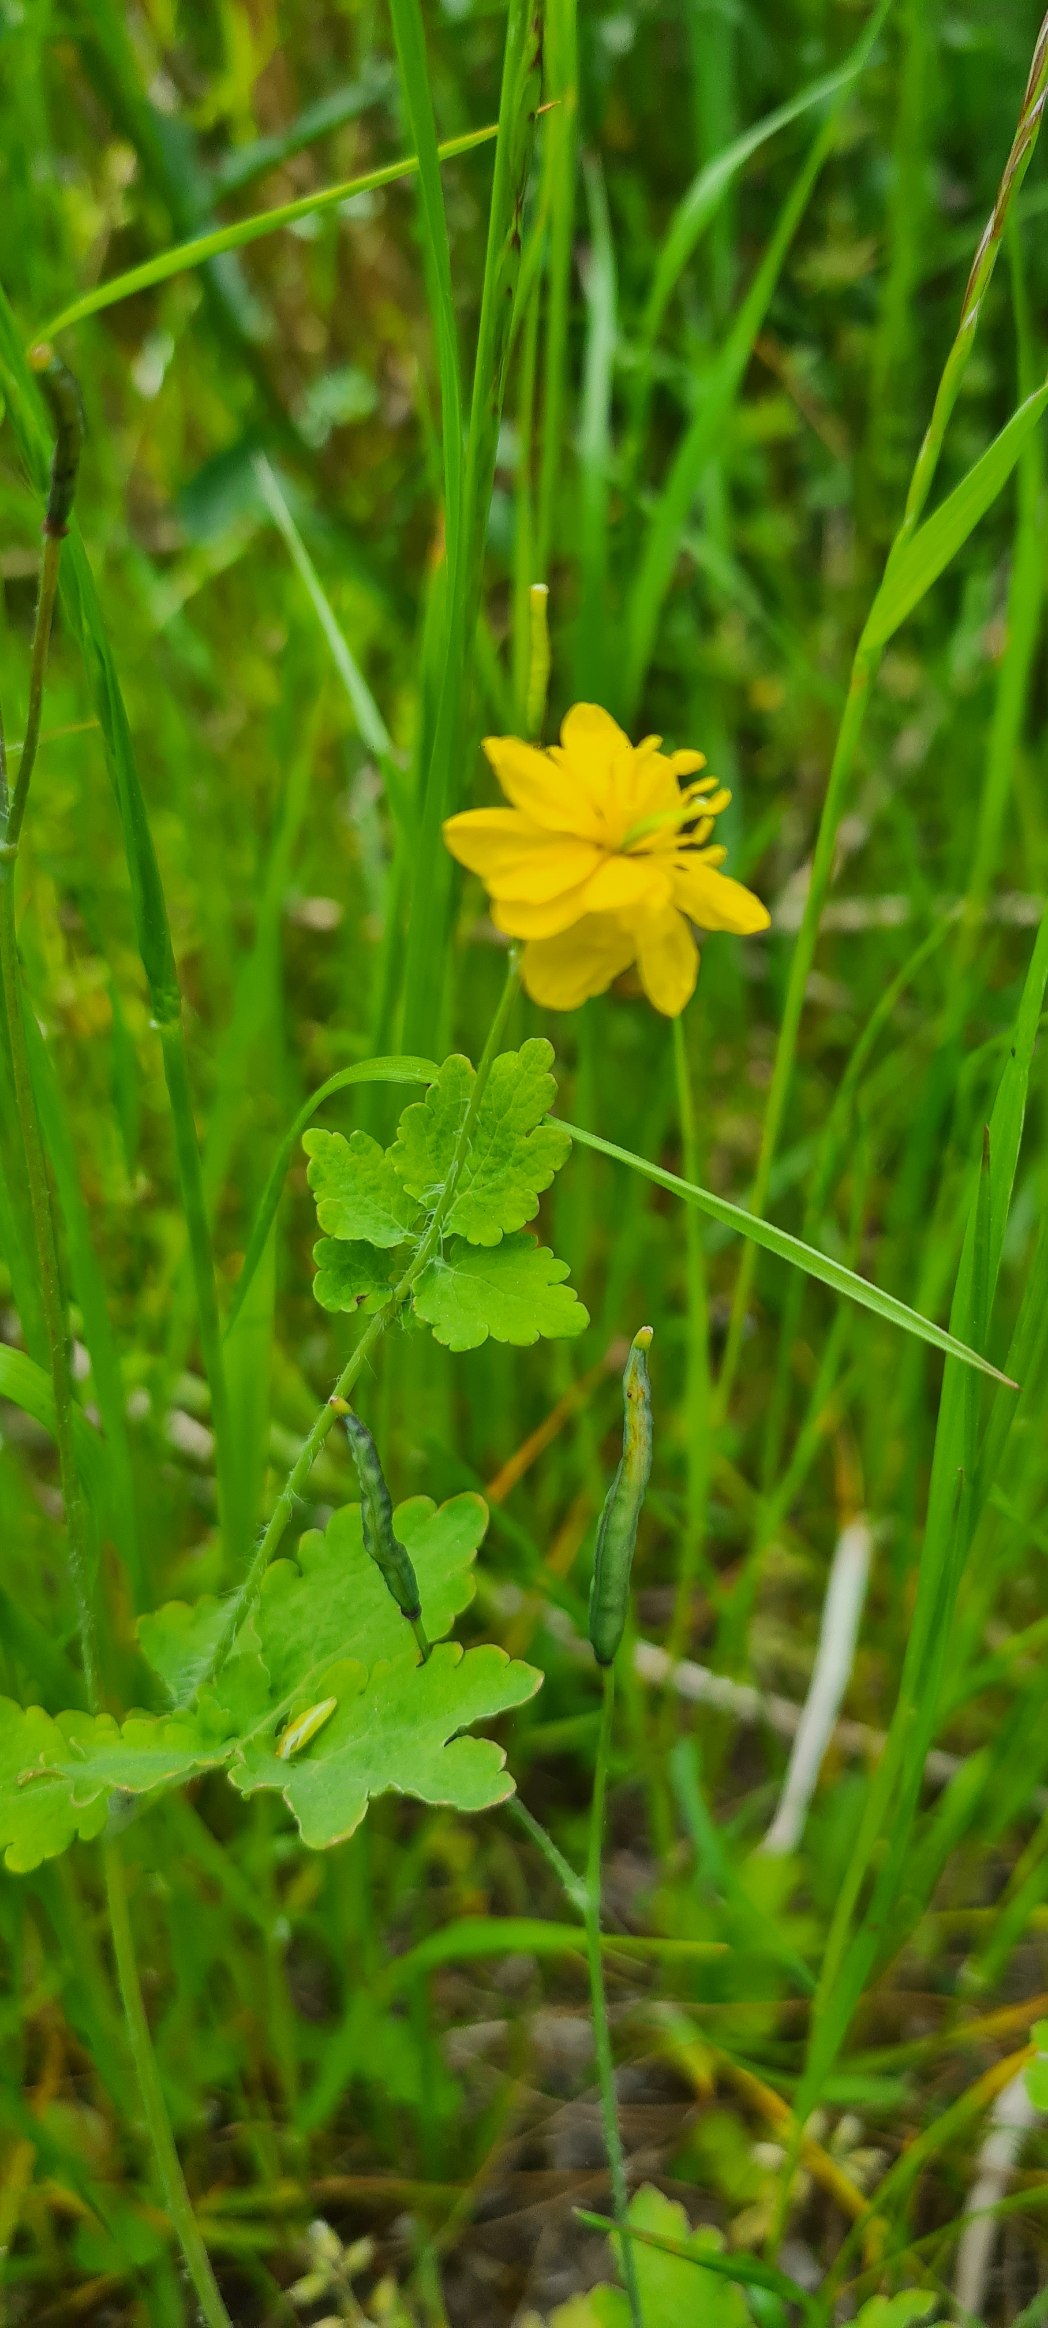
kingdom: Plantae
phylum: Tracheophyta
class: Magnoliopsida
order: Ranunculales
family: Papaveraceae
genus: Chelidonium
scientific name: Chelidonium majus
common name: Svaleurt
